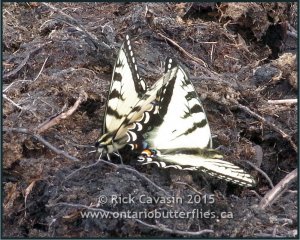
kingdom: Animalia
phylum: Arthropoda
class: Insecta
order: Lepidoptera
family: Papilionidae
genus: Pterourus
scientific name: Pterourus canadensis
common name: Canadian Tiger Swallowtail
